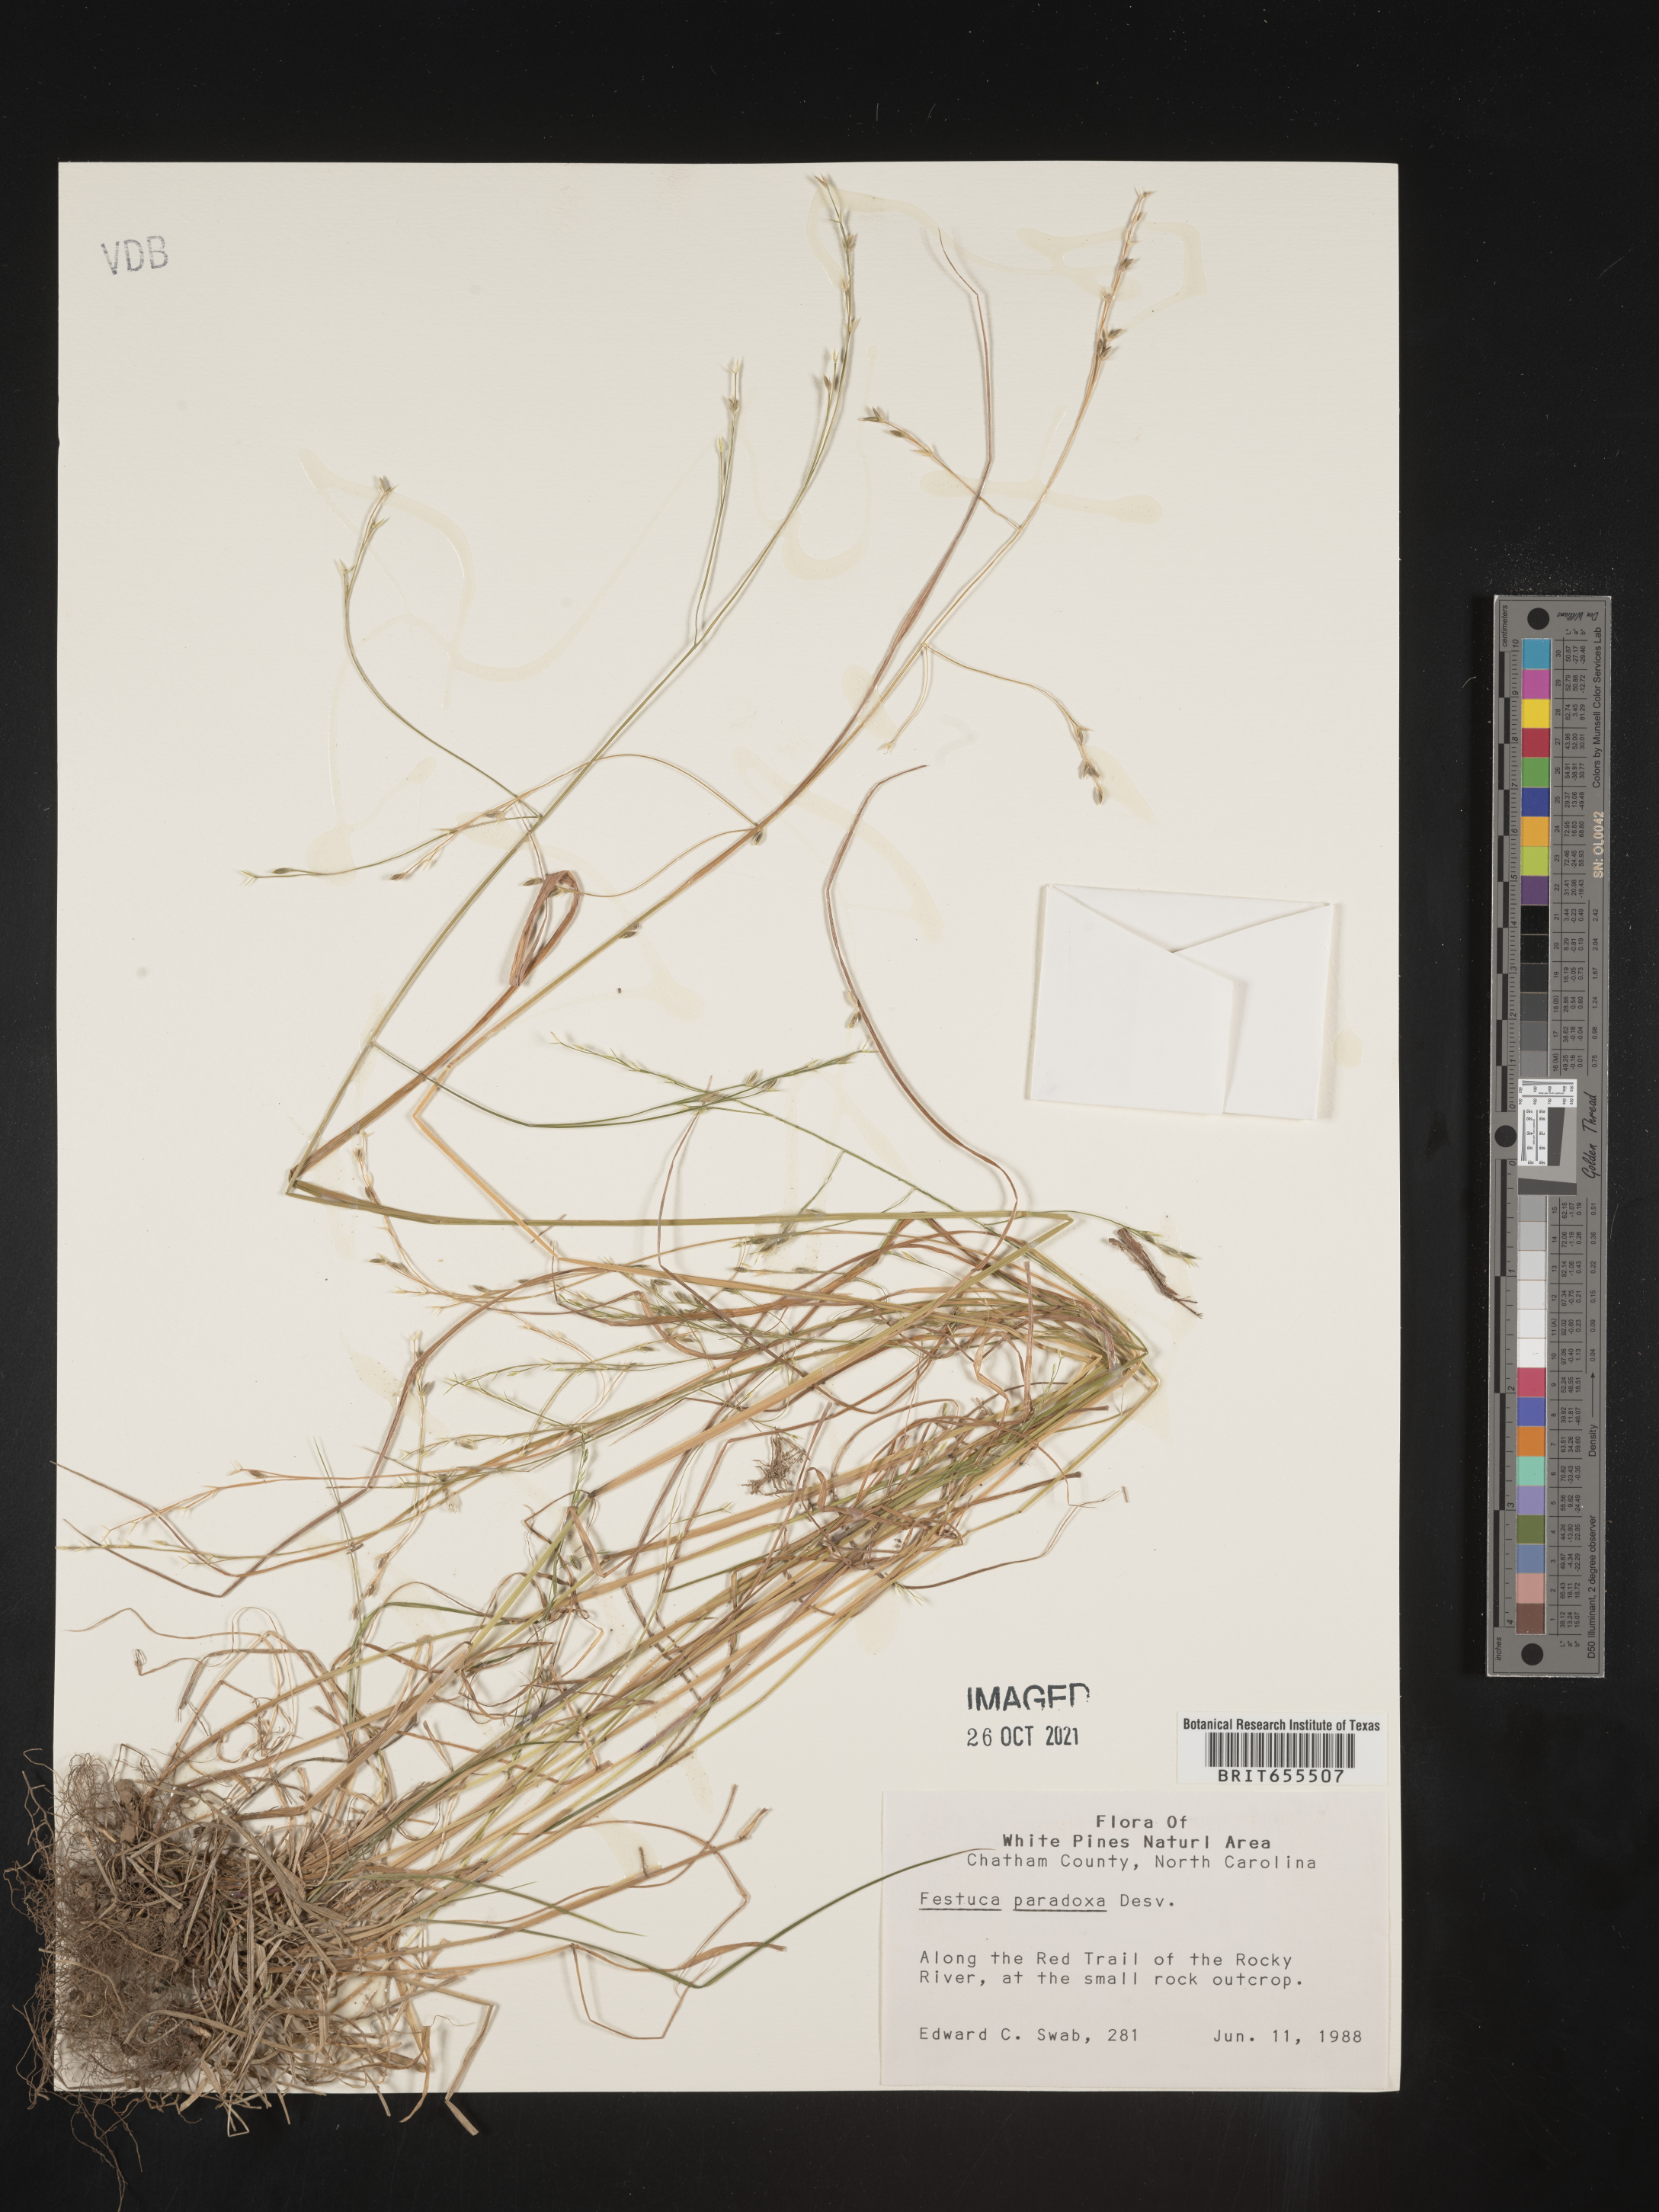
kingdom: Plantae
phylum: Tracheophyta
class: Liliopsida
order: Poales
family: Poaceae
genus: Festuca
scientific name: Festuca
